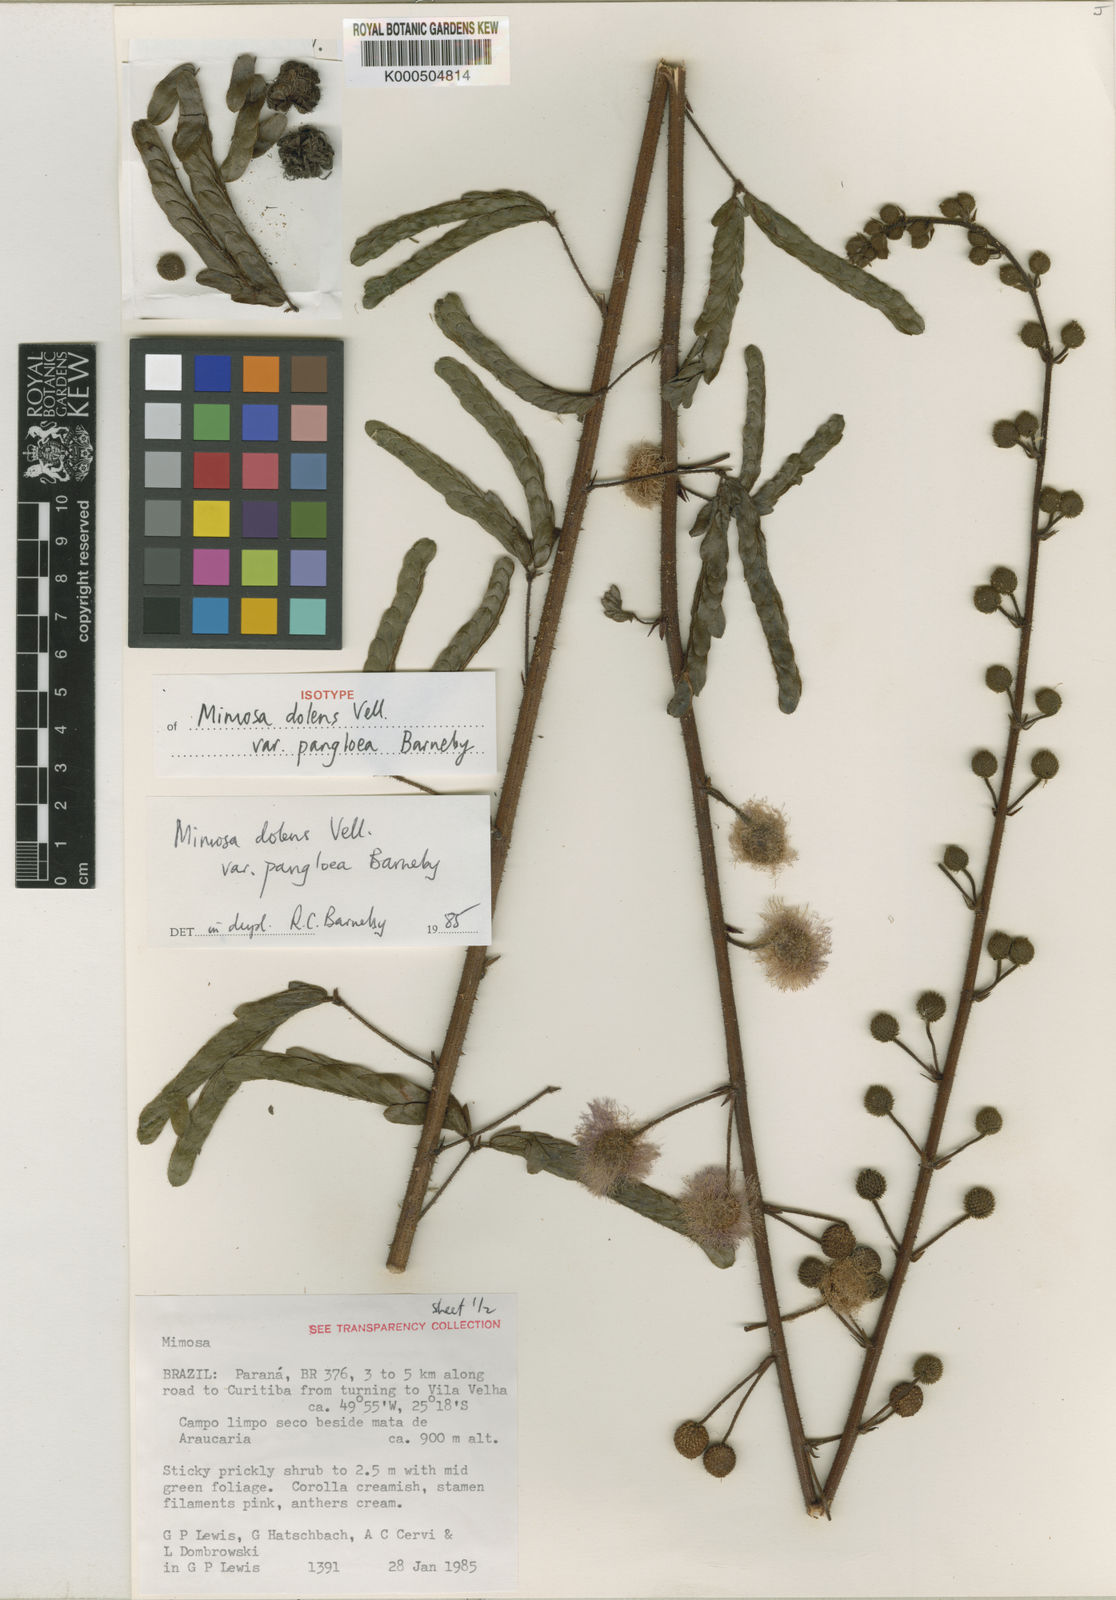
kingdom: Plantae
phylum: Tracheophyta
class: Magnoliopsida
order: Fabales
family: Fabaceae
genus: Mimosa
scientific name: Mimosa dolens
